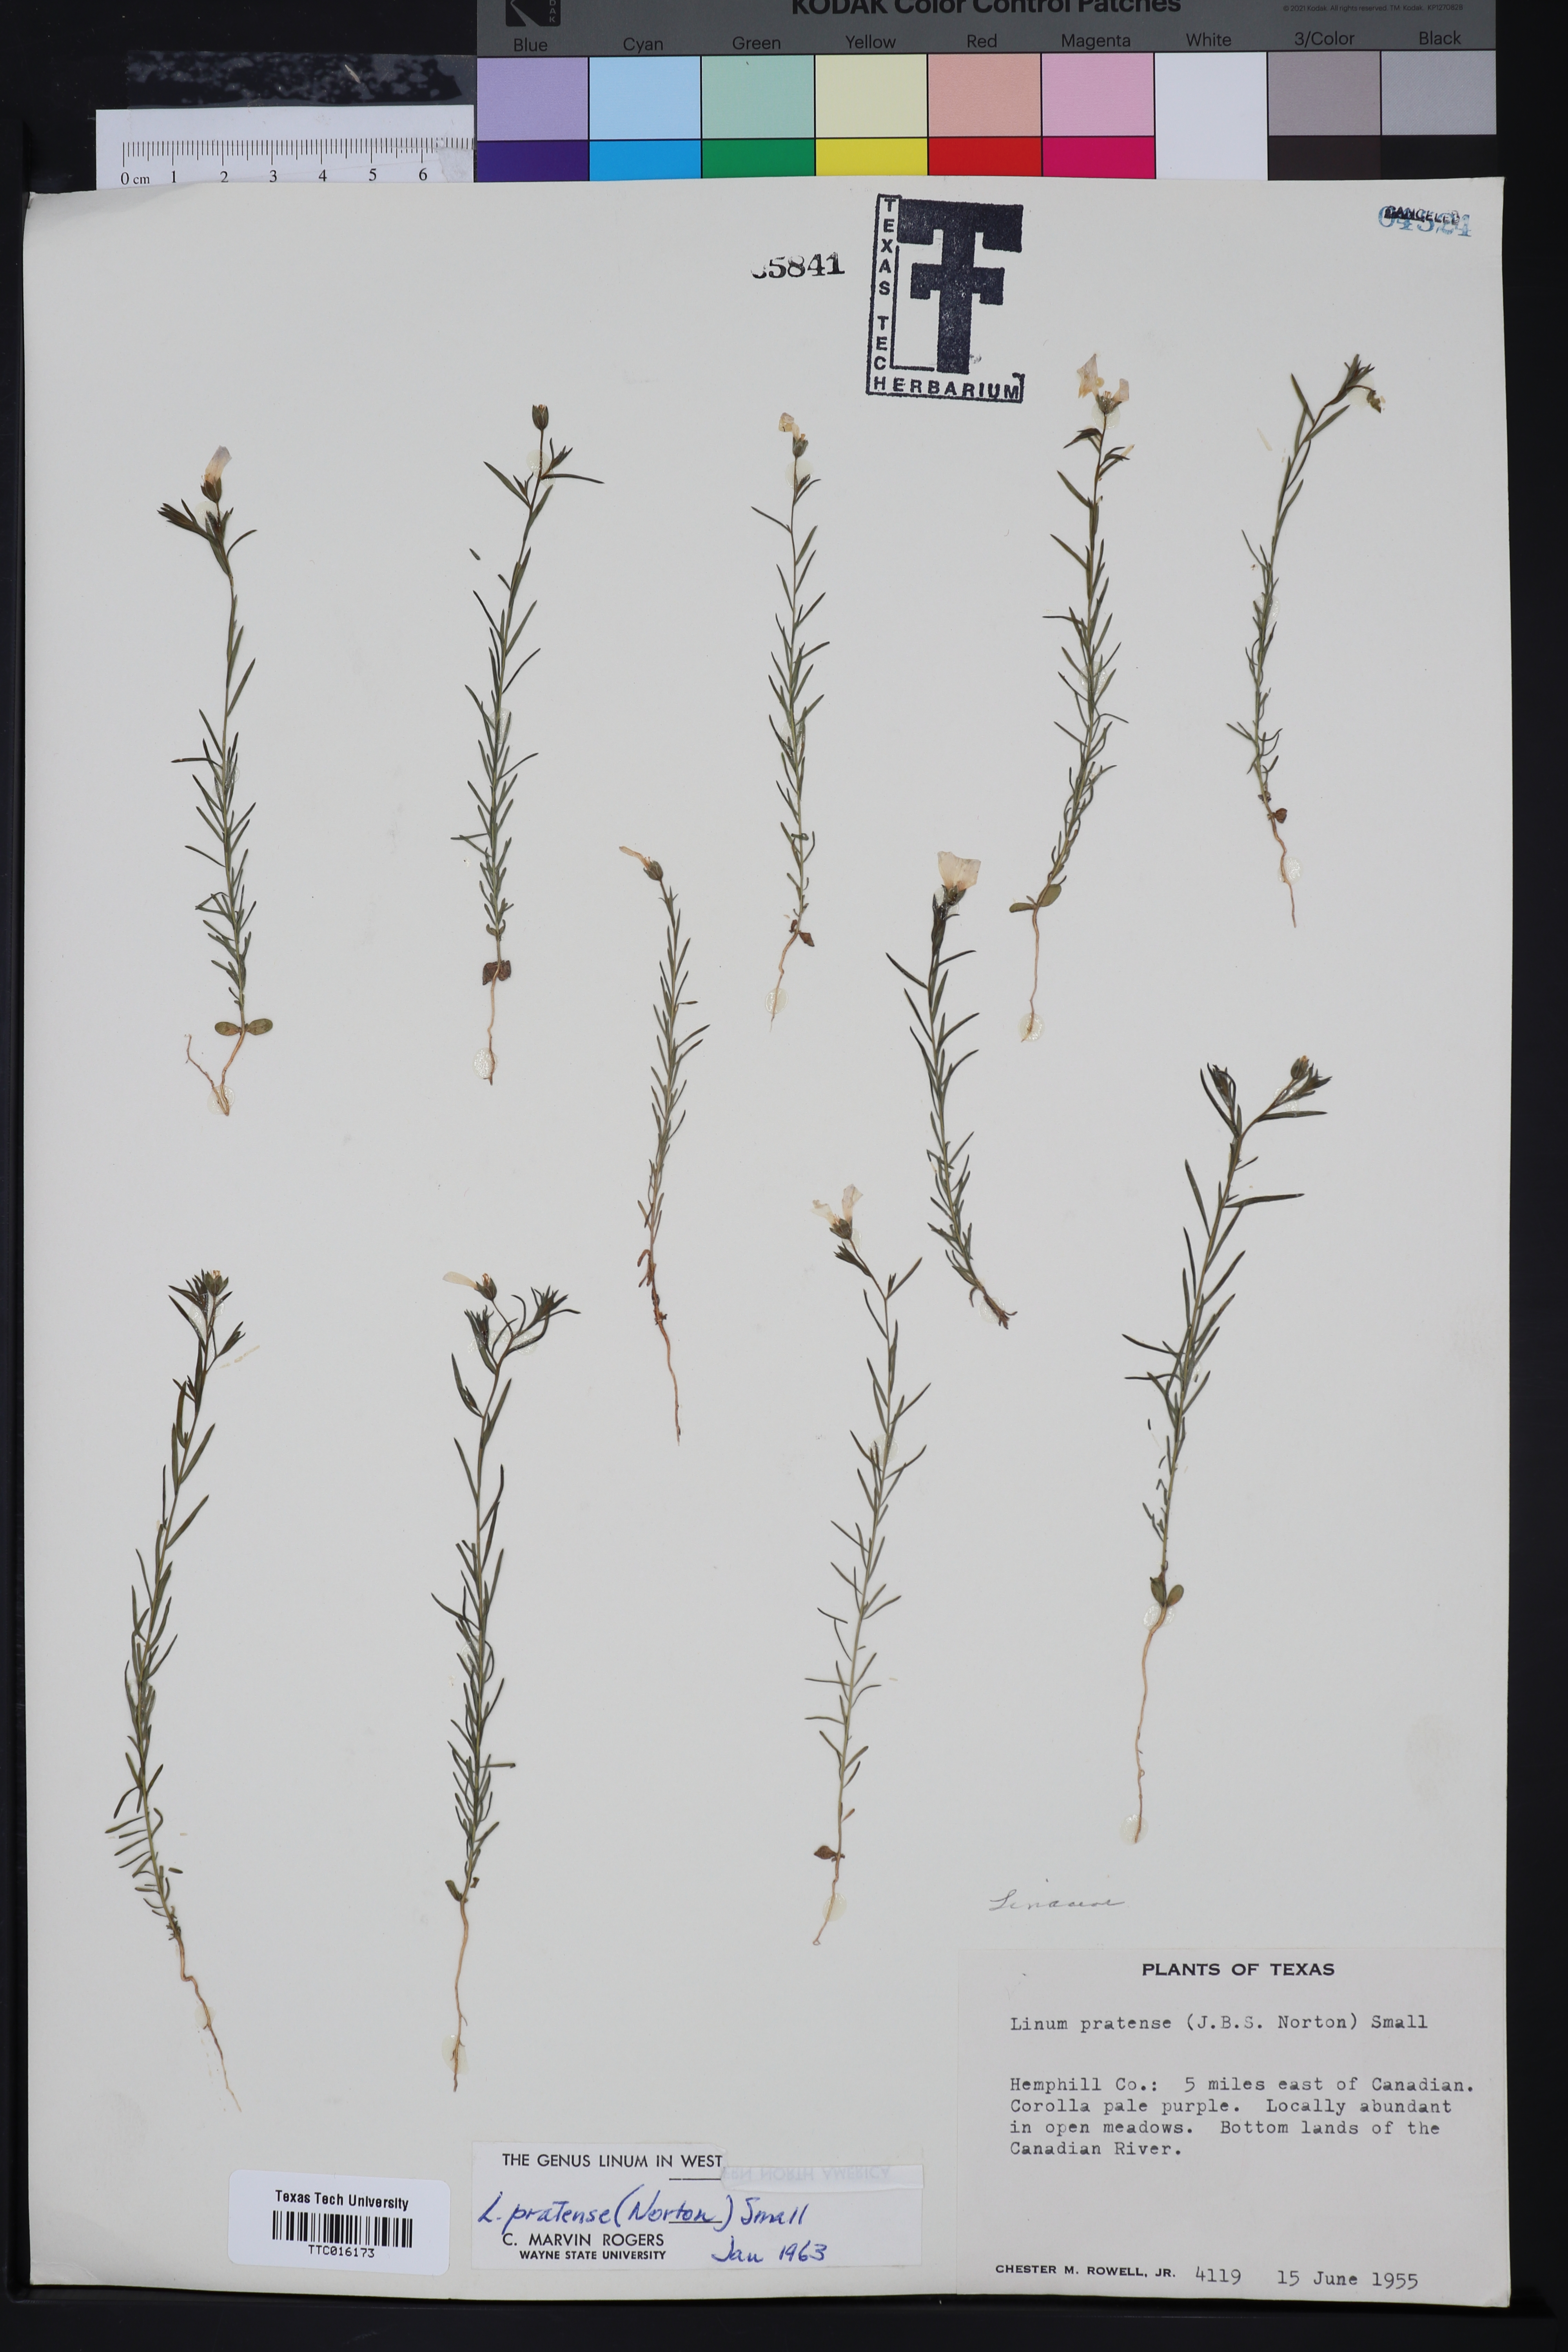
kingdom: Plantae
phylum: Tracheophyta
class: Magnoliopsida
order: Malpighiales
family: Linaceae
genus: Linum
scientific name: Linum pratense
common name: Norton's flax
